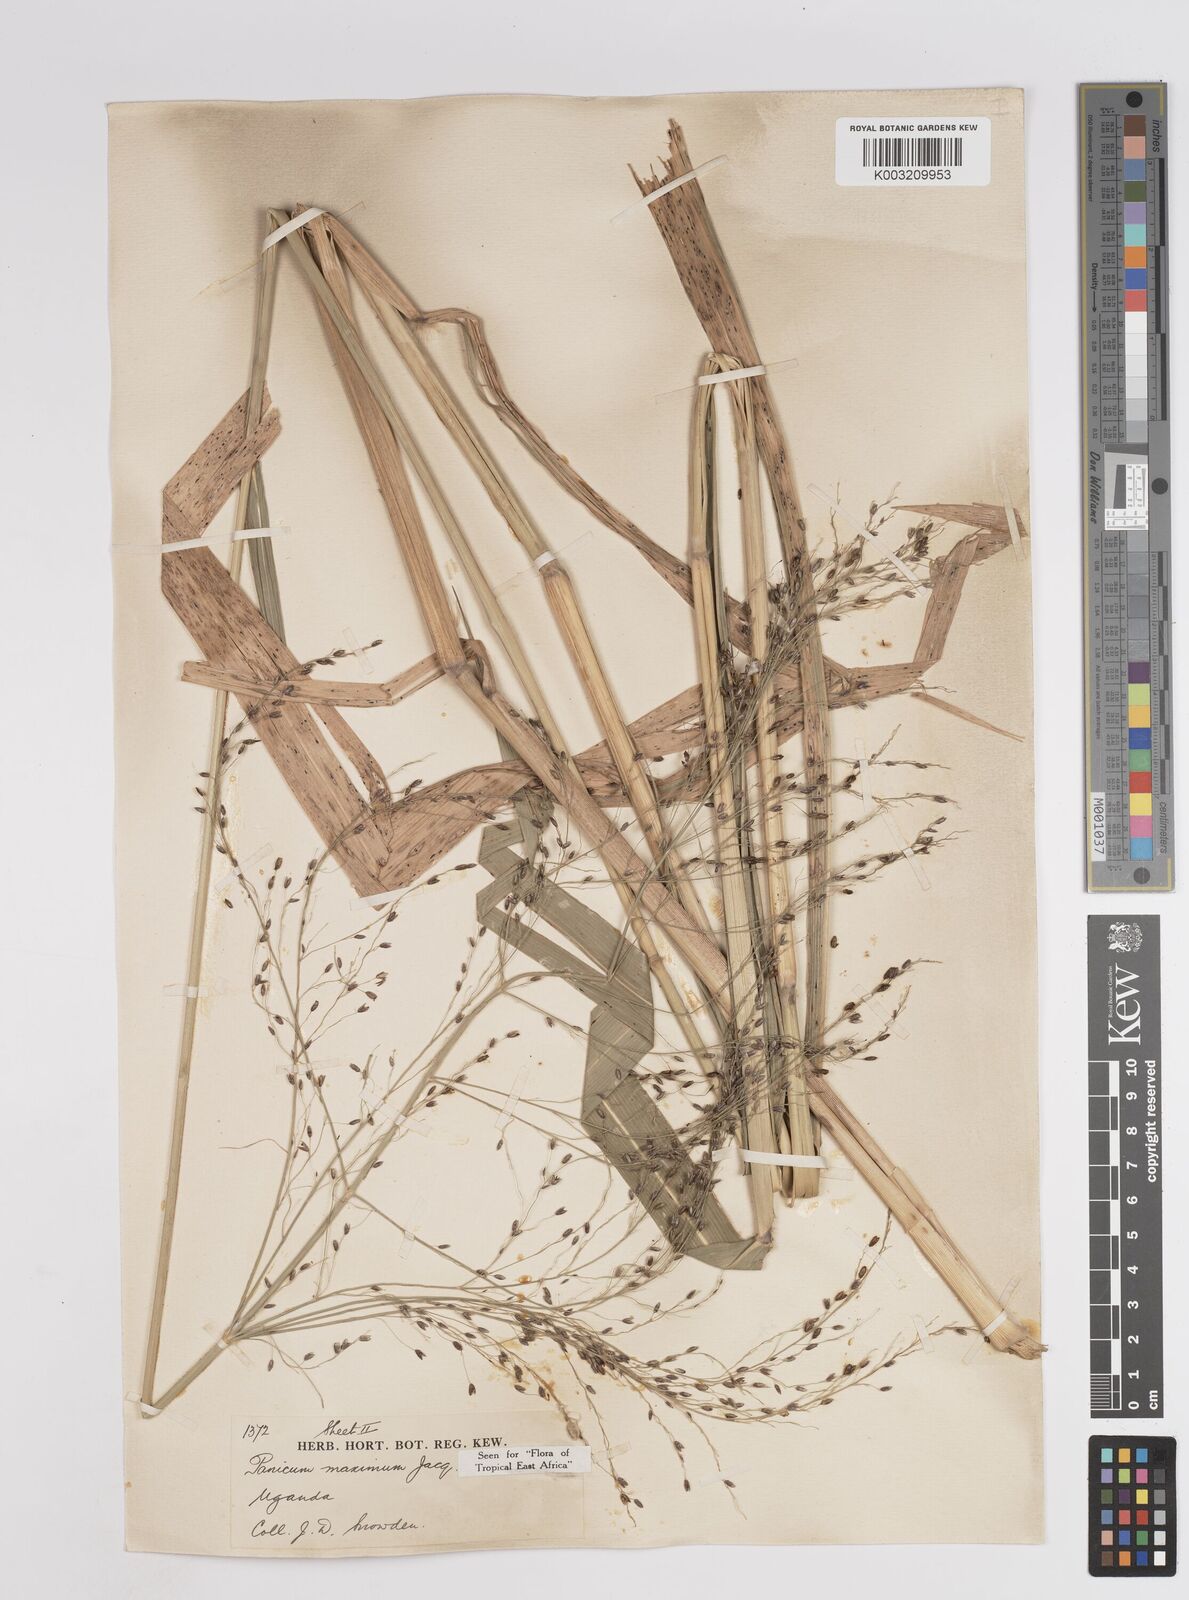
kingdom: Plantae
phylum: Tracheophyta
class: Liliopsida
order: Poales
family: Poaceae
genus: Megathyrsus
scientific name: Megathyrsus maximus
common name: Guineagrass
